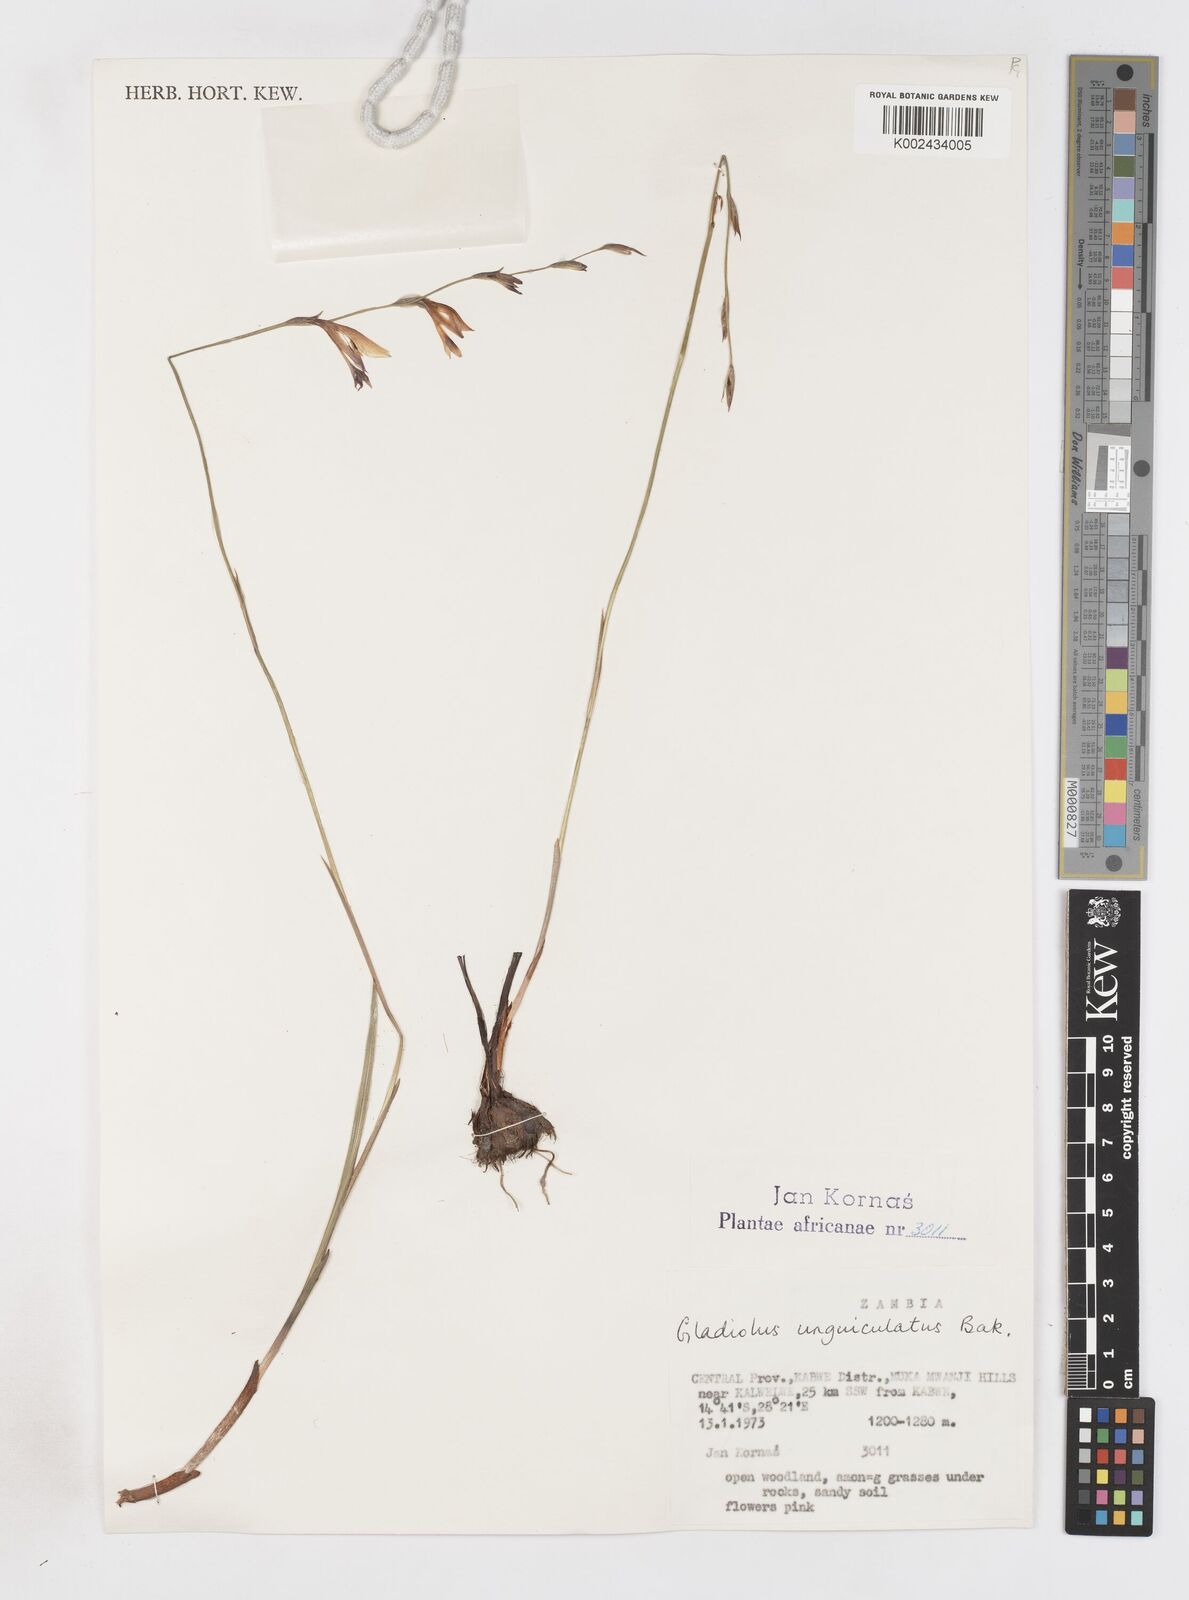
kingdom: Plantae
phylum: Tracheophyta
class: Liliopsida
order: Asparagales
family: Iridaceae
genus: Gladiolus
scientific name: Gladiolus atropurpureus
